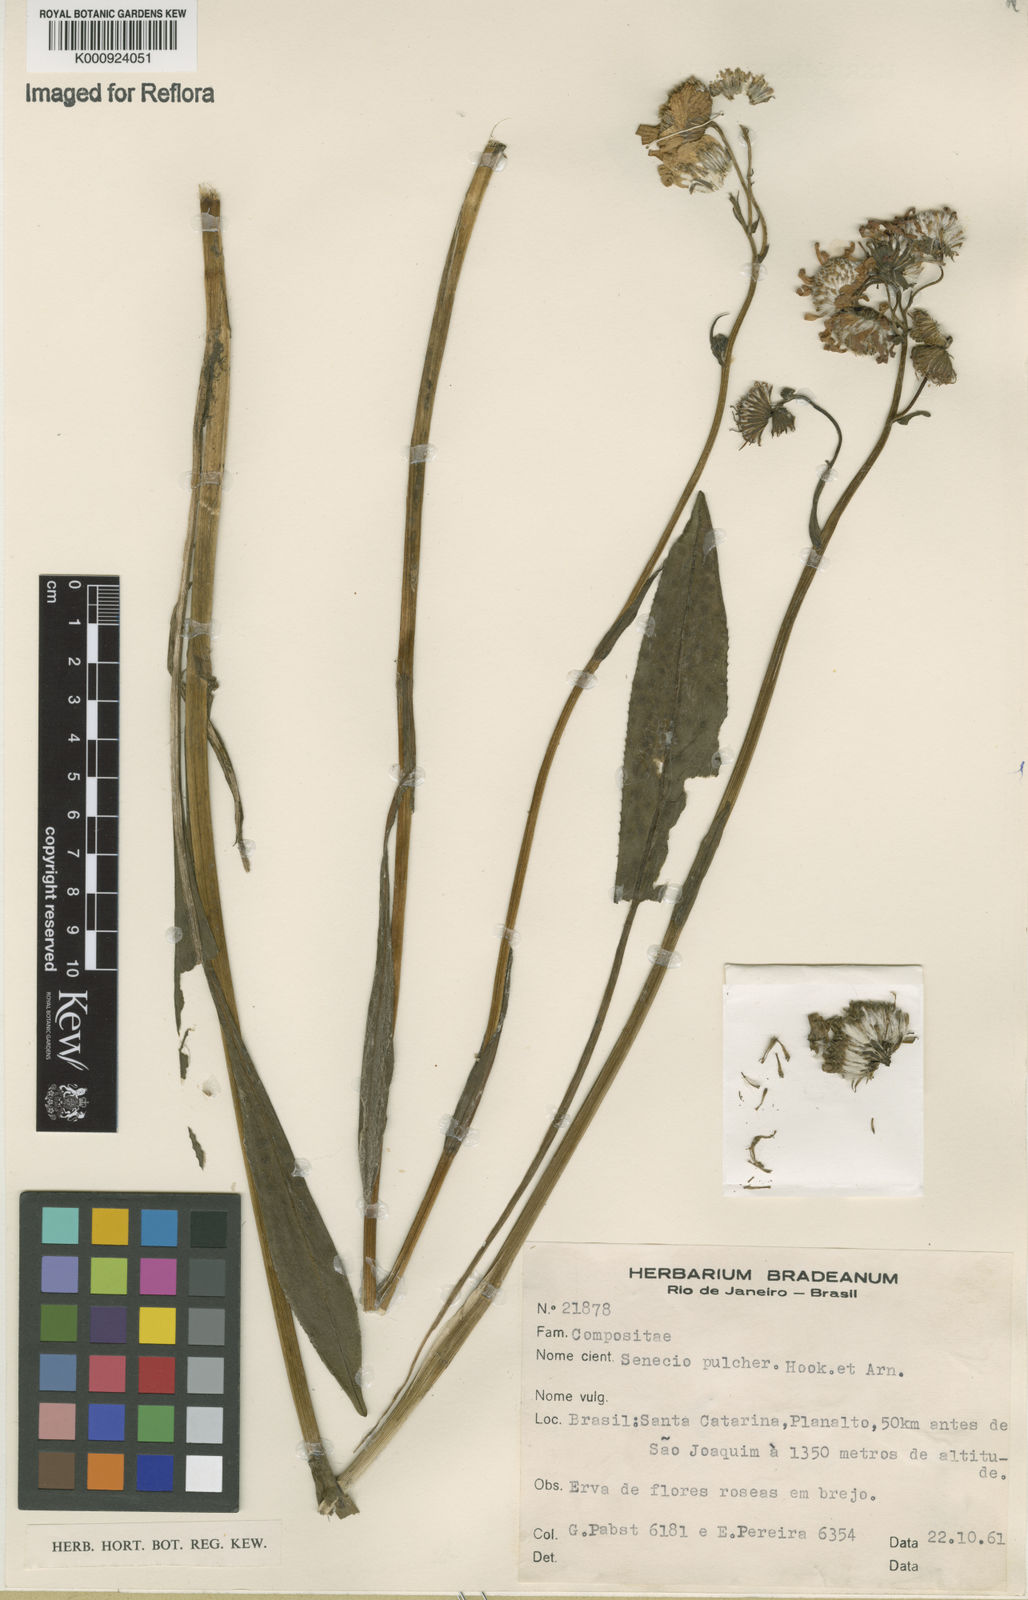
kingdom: Plantae
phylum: Tracheophyta
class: Magnoliopsida
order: Asterales
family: Asteraceae
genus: Senecio
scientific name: Senecio pulcher
